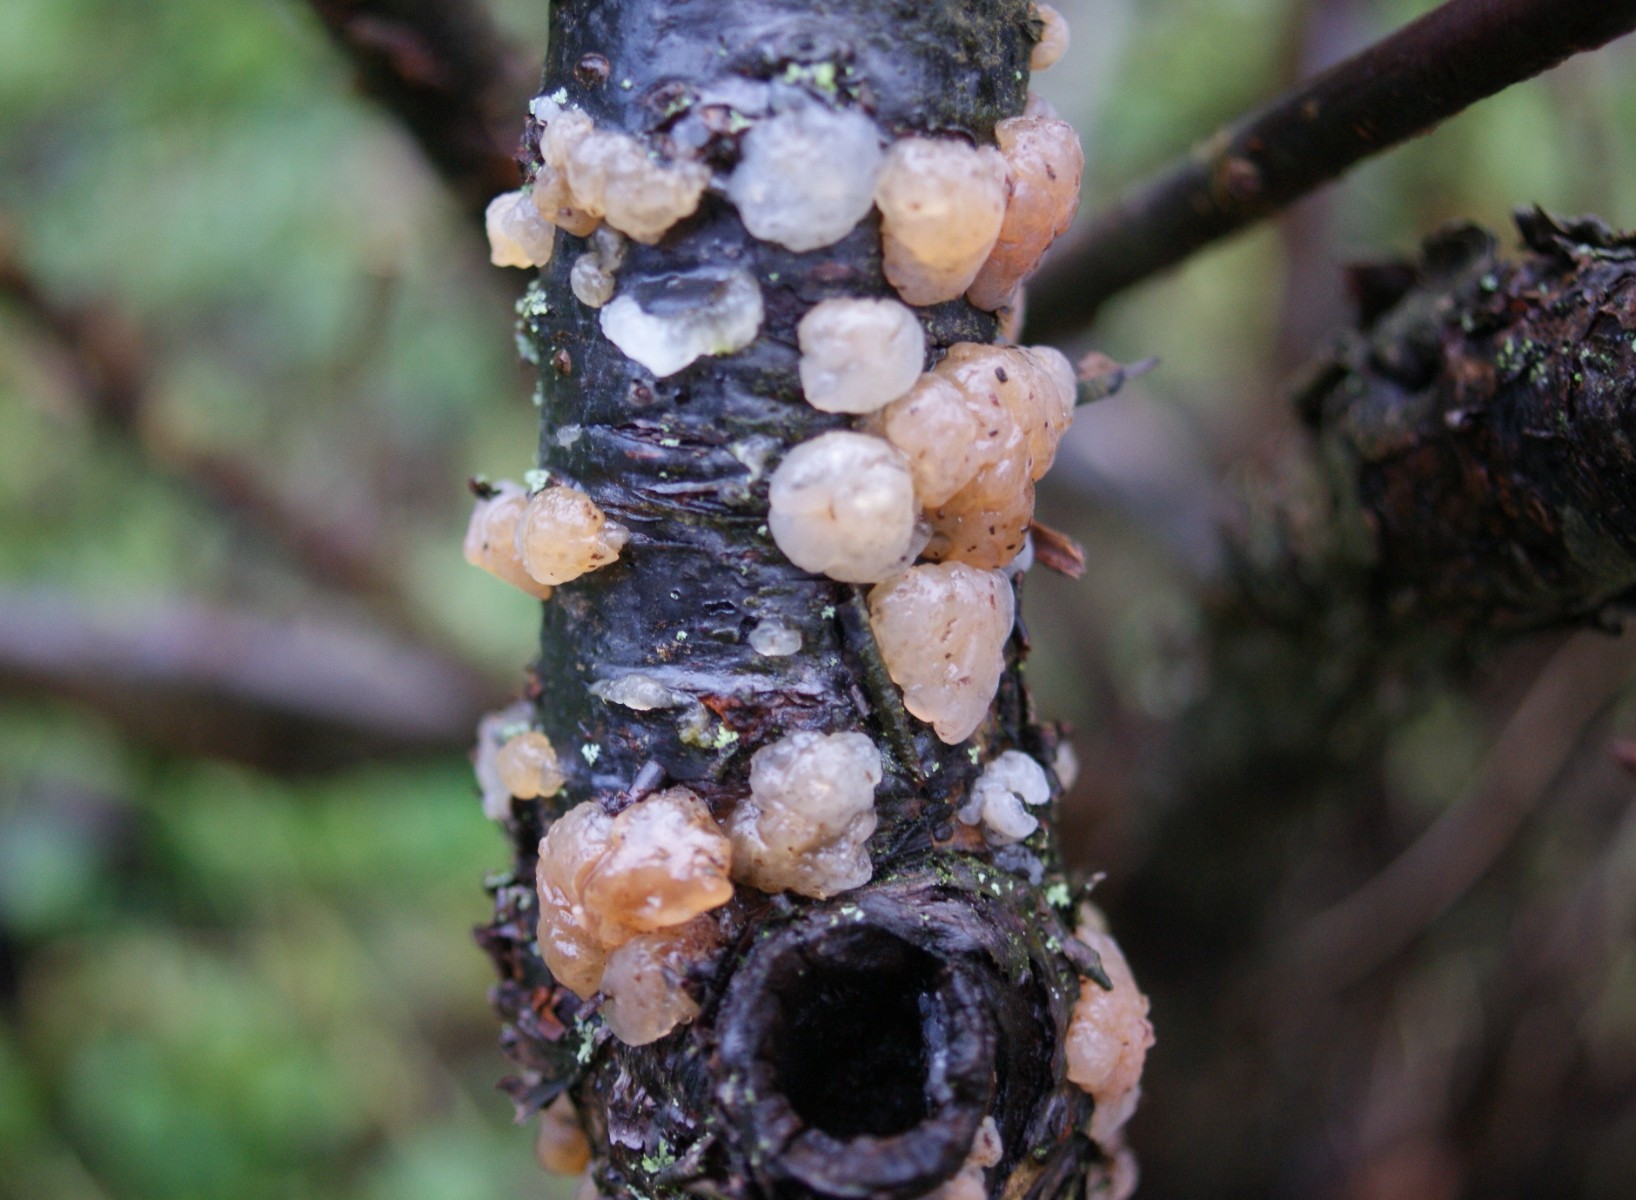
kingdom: Fungi
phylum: Basidiomycota
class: Agaricomycetes
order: Auriculariales
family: Hyaloriaceae
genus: Myxarium
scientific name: Myxarium nucleatum
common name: klar bævretop
